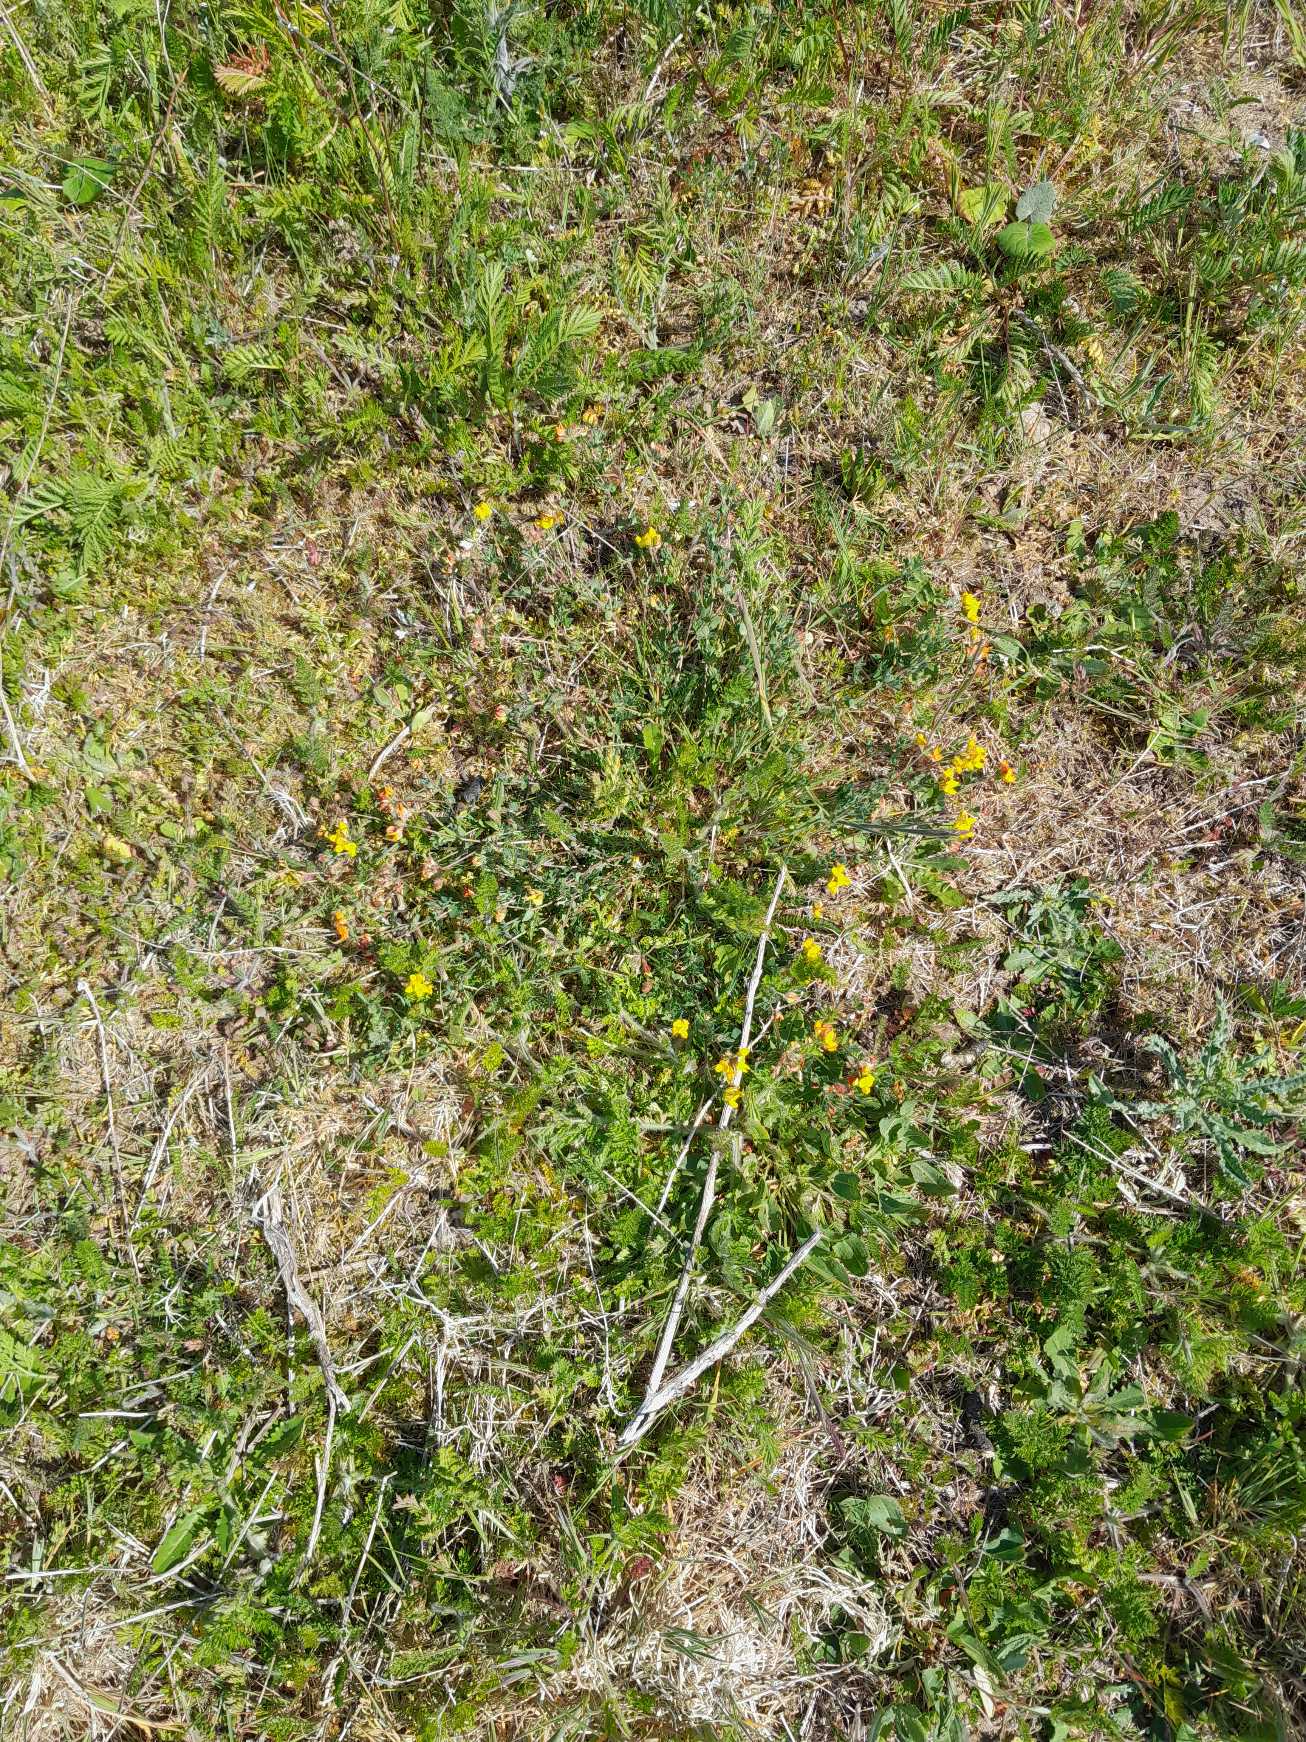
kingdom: Plantae
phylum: Tracheophyta
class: Magnoliopsida
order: Fabales
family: Fabaceae
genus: Lotus
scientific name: Lotus corniculatus
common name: Almindelig kællingetand
